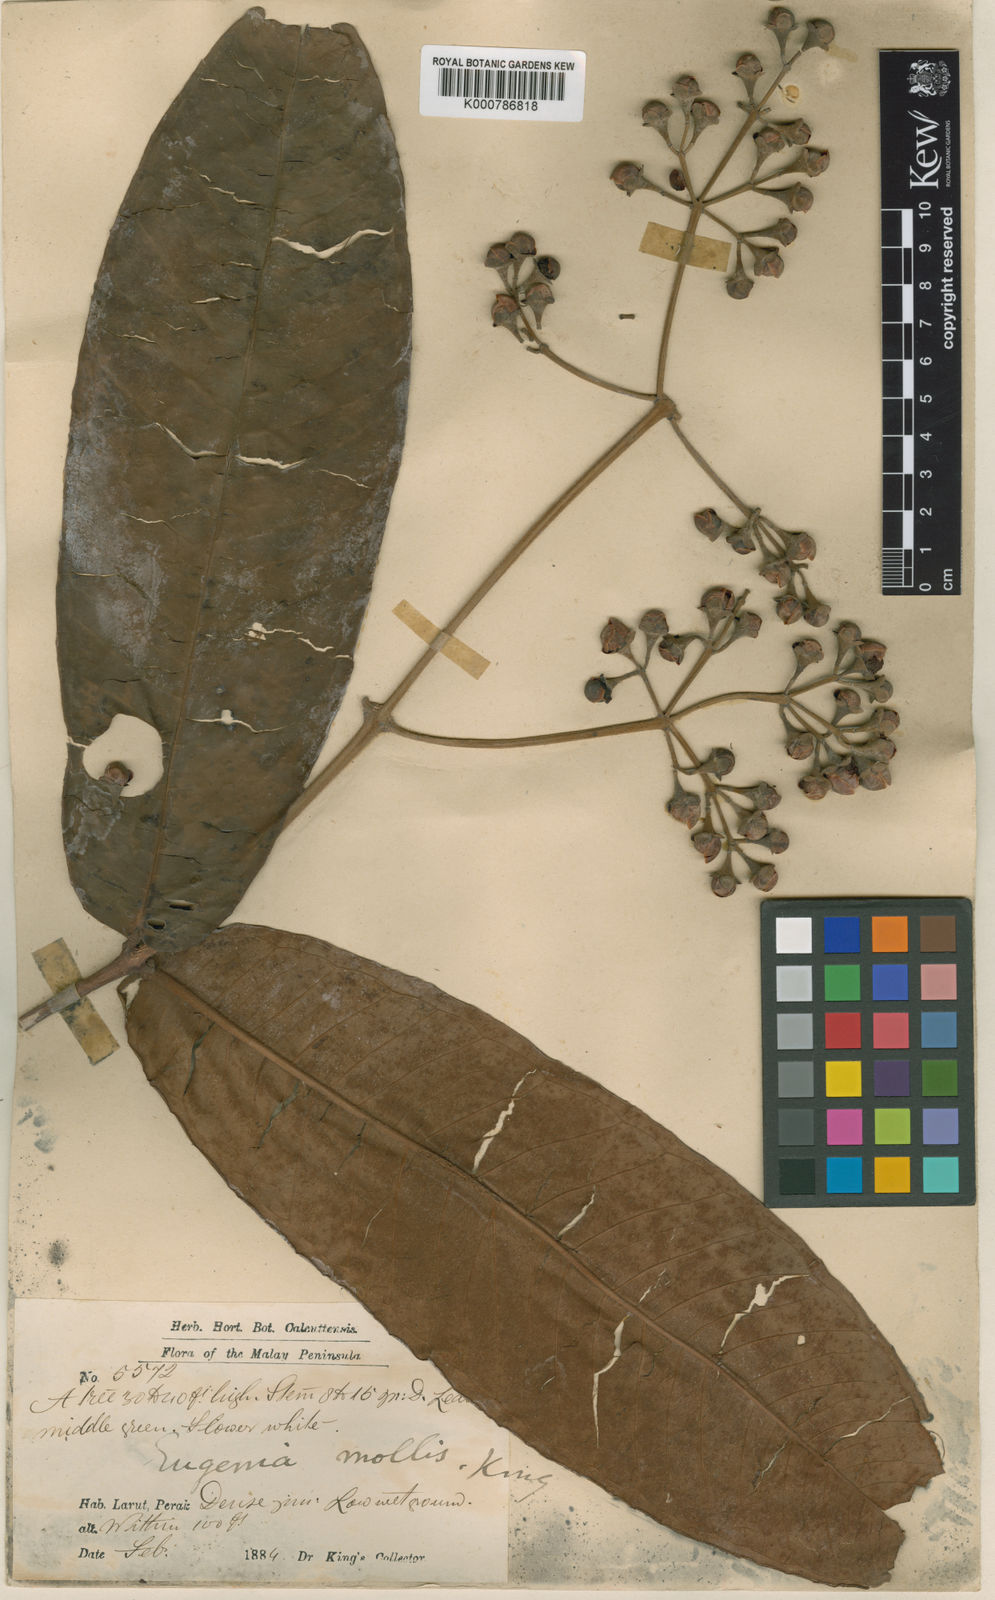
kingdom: Plantae
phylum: Tracheophyta
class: Magnoliopsida
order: Myrtales
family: Myrtaceae
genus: Syzygium
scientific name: Syzygium pseudomolle
